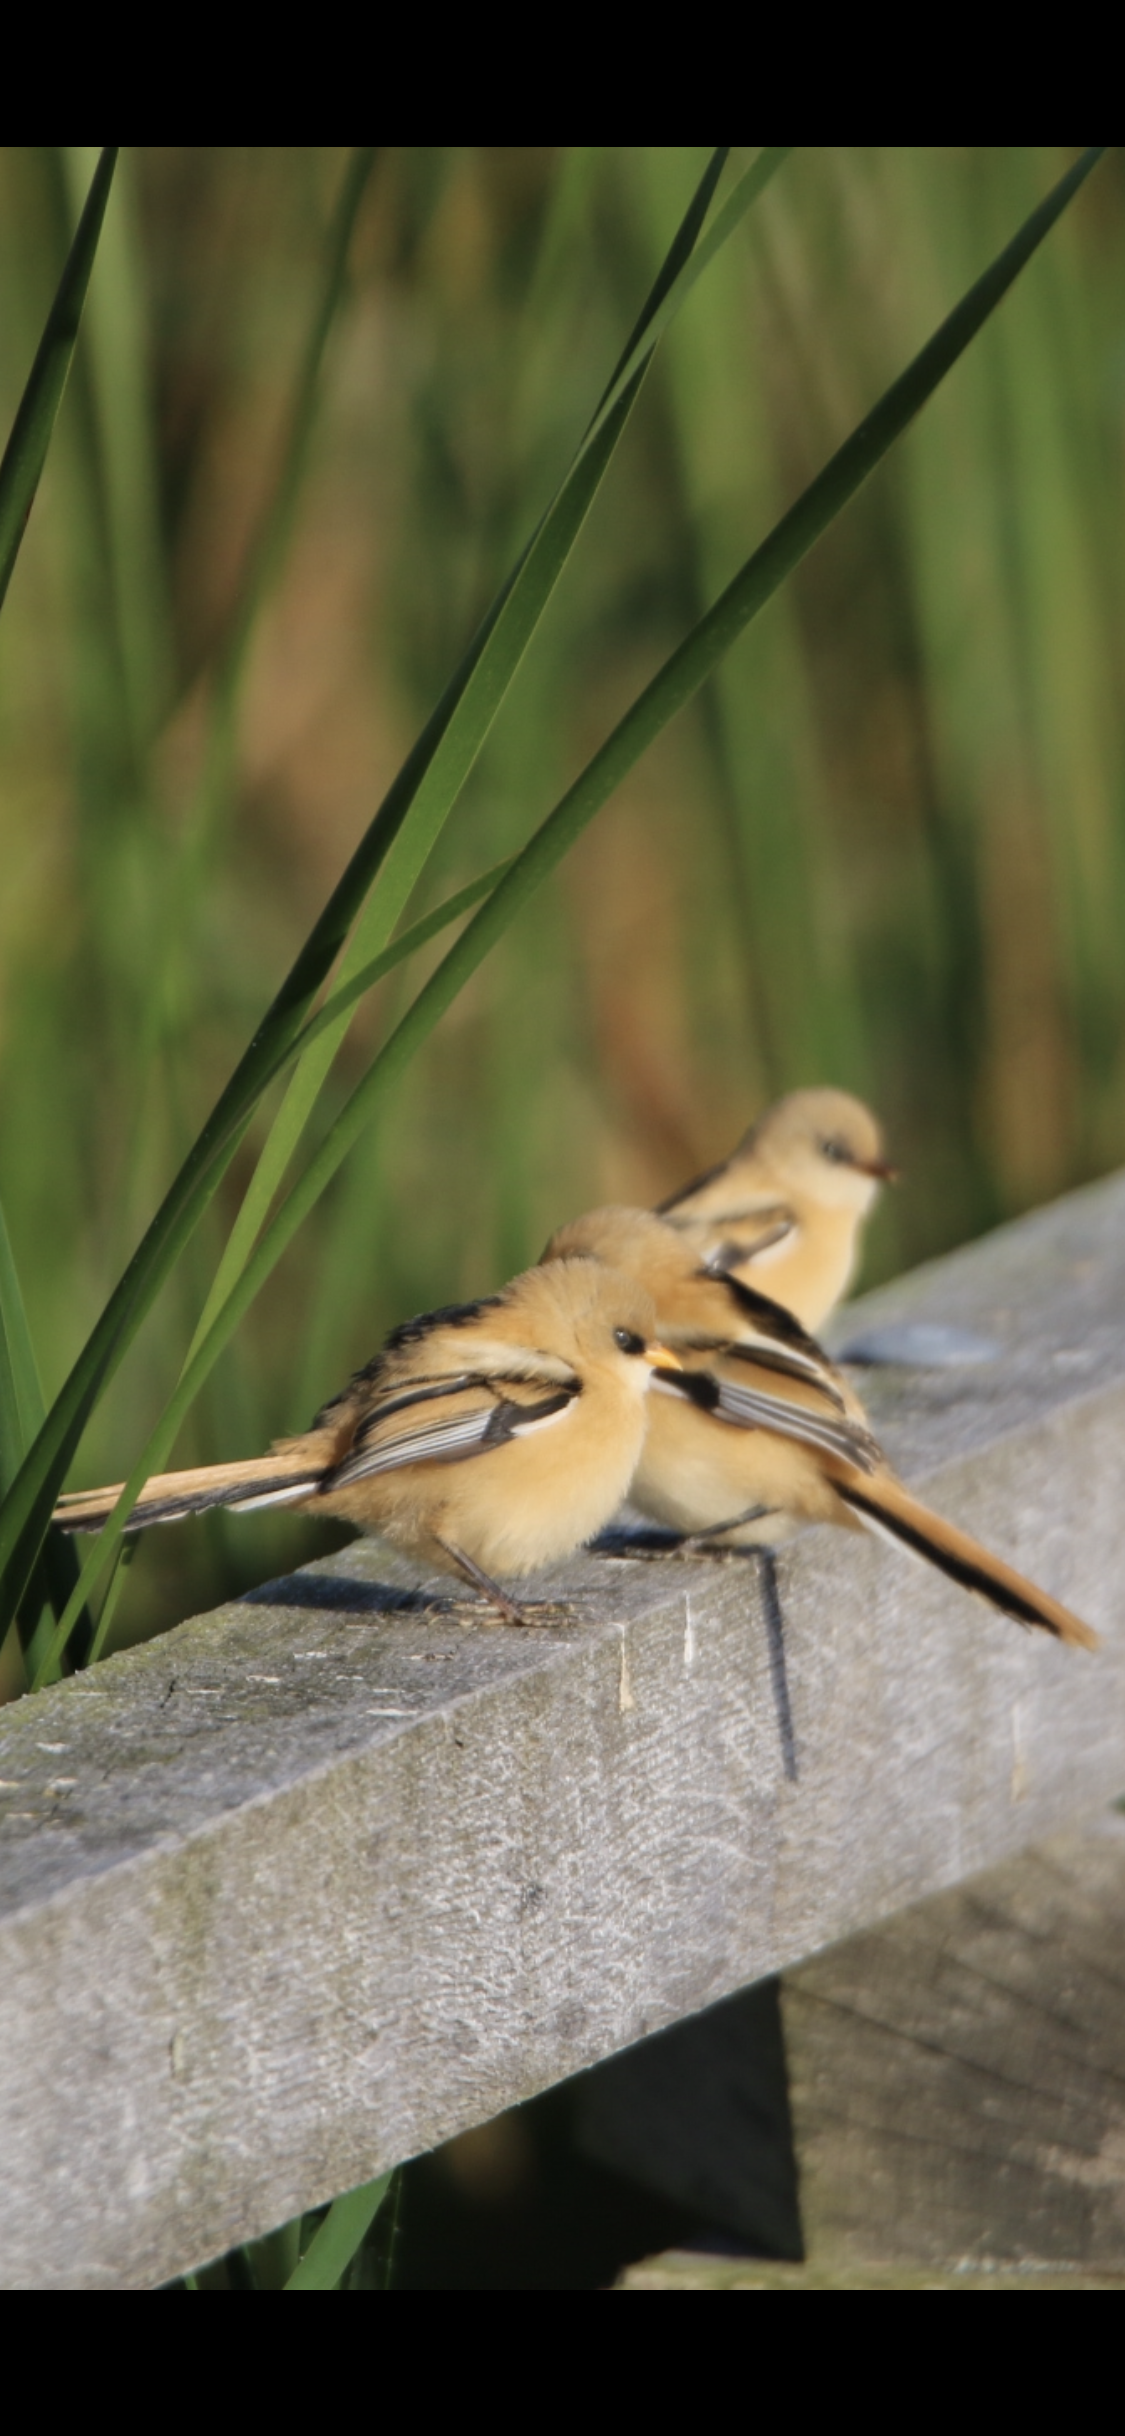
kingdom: Animalia
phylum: Chordata
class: Aves
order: Passeriformes
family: Panuridae
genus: Panurus
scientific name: Panurus biarmicus
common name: Skægmejse
